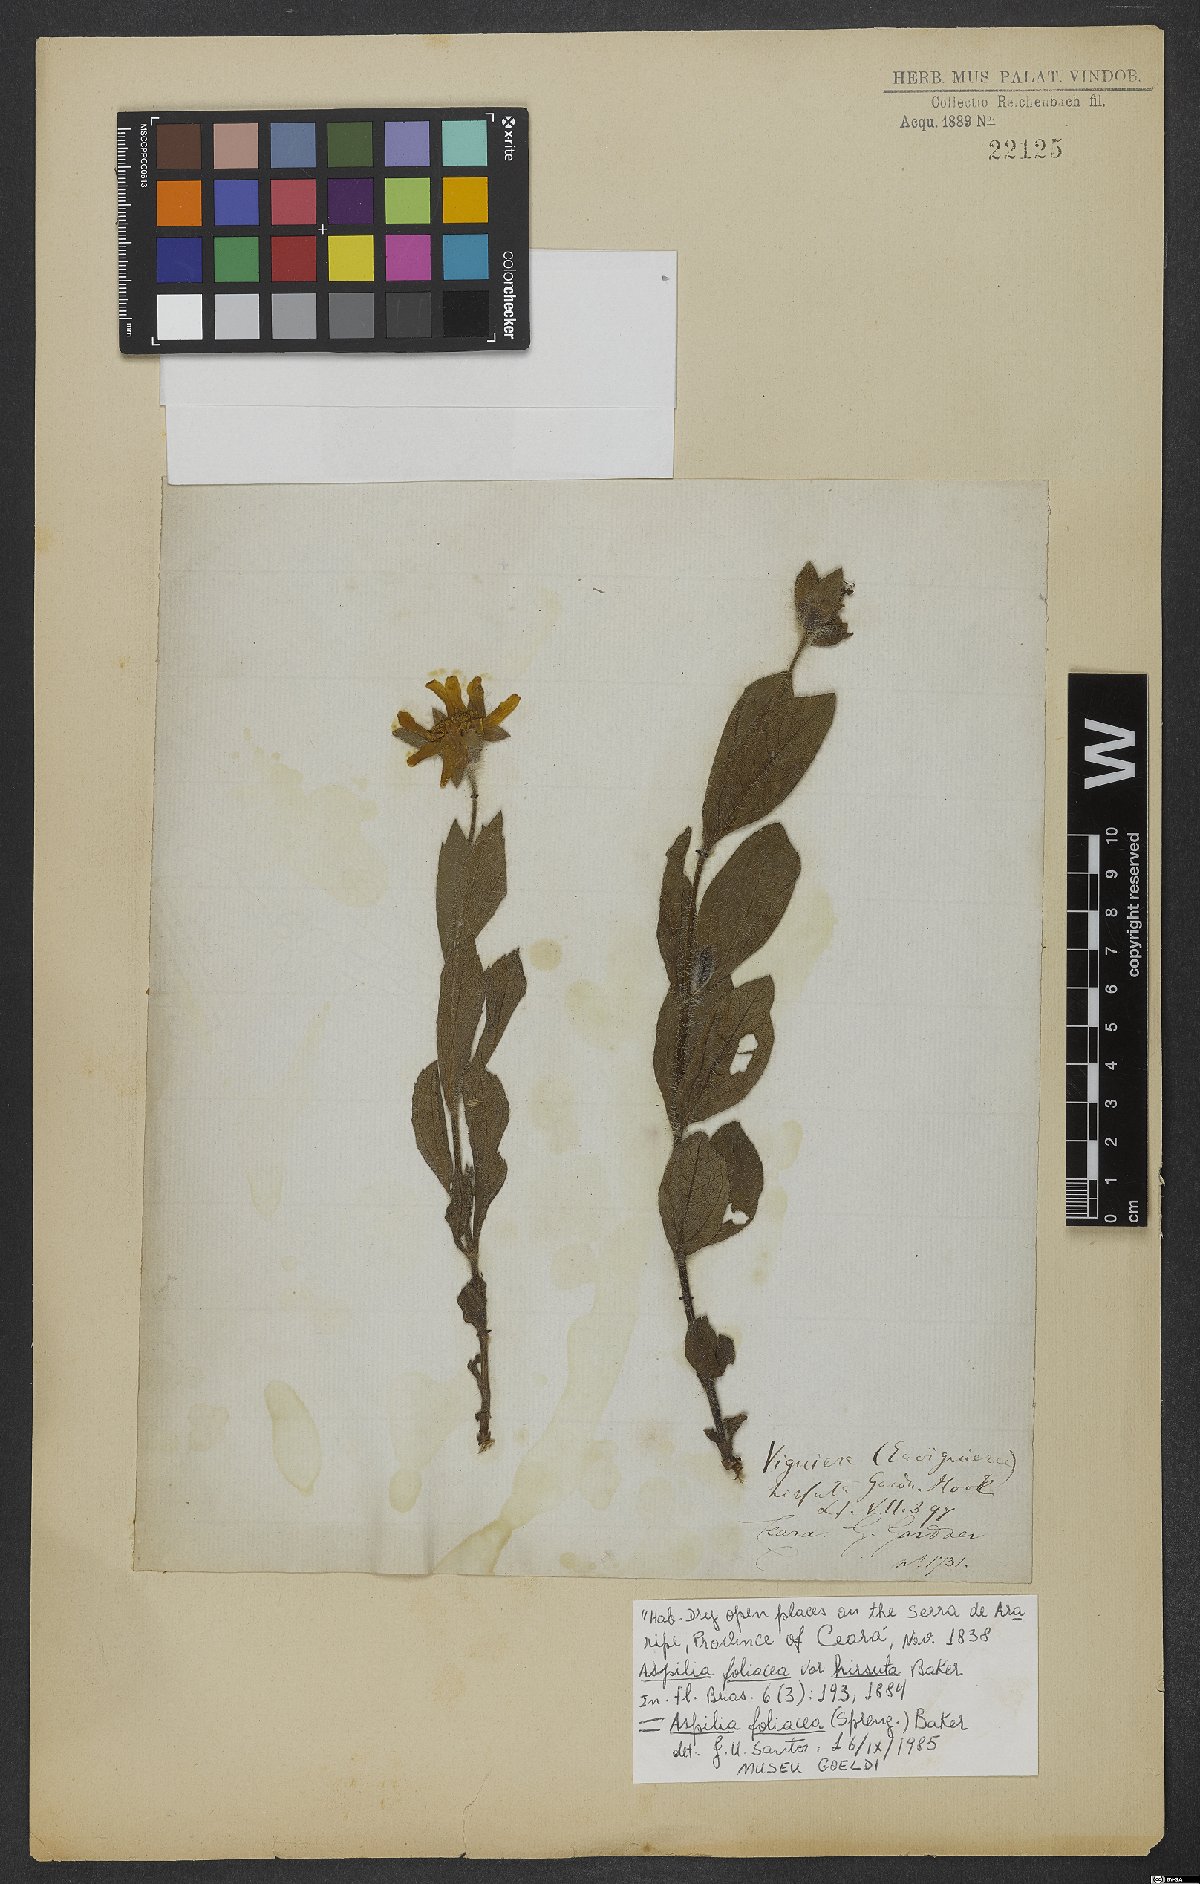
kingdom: Plantae
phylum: Tracheophyta
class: Magnoliopsida
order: Asterales
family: Asteraceae
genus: Aspilia
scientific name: Aspilia foliosa
